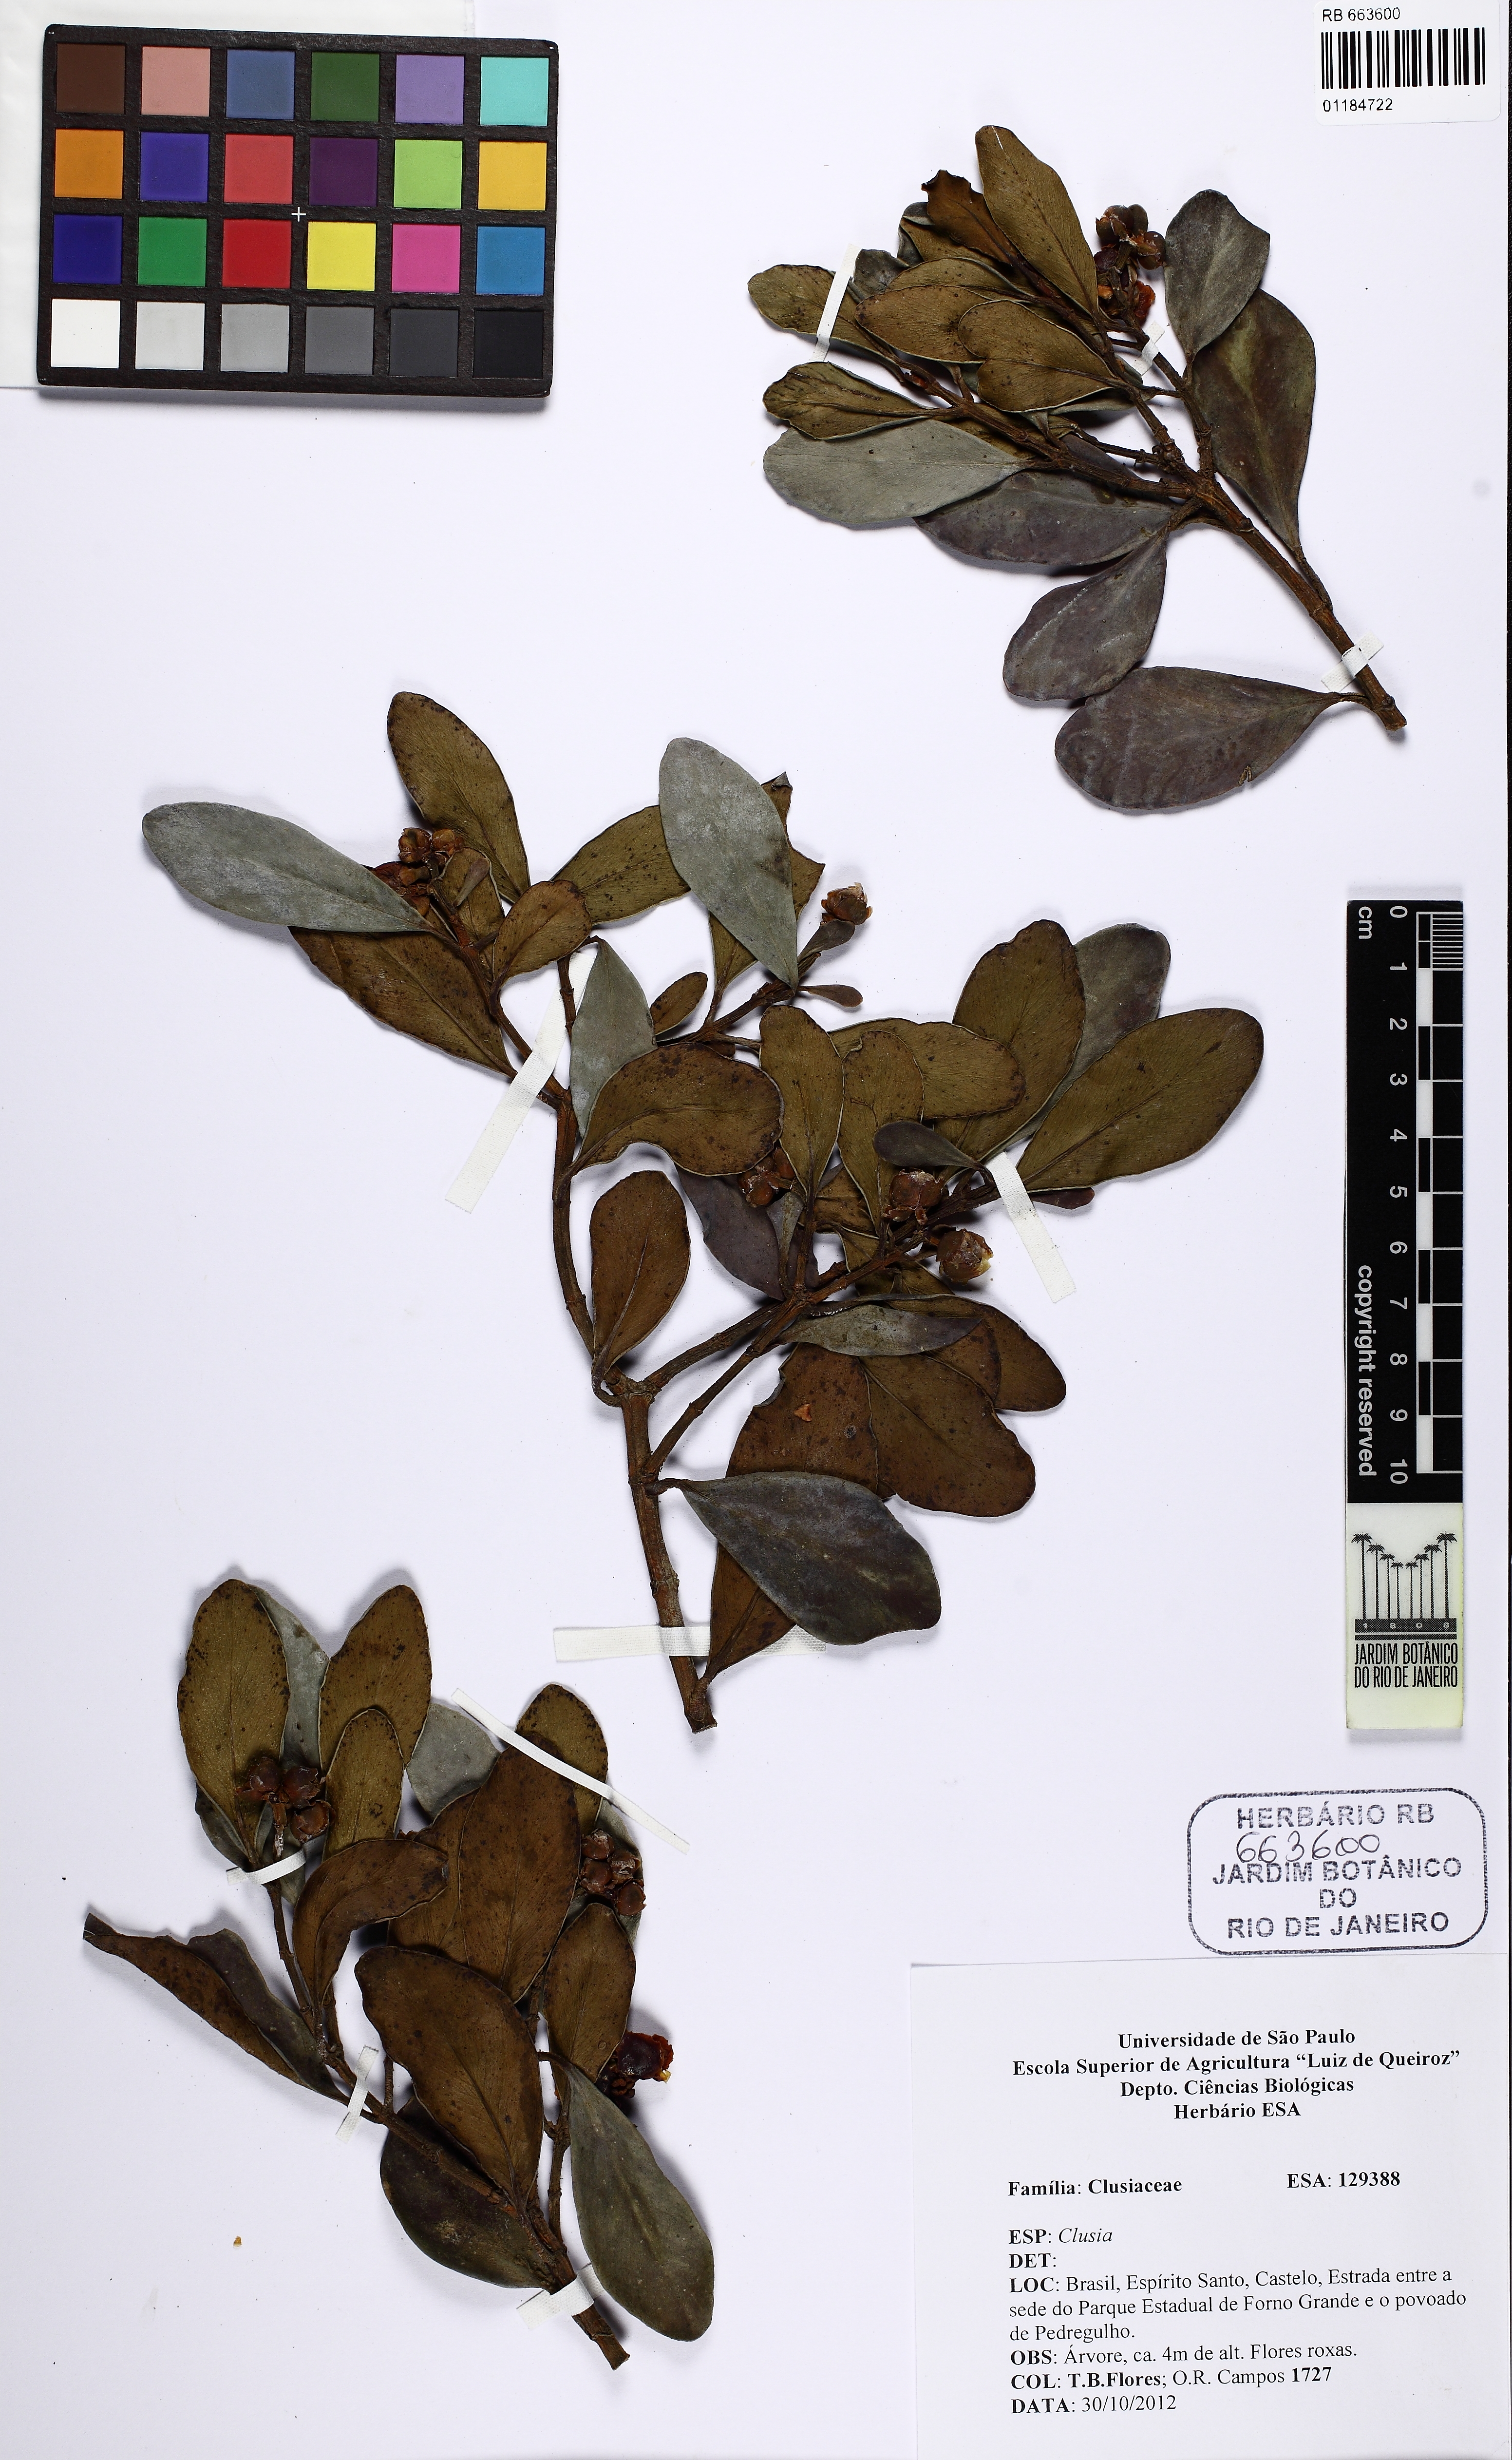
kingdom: Plantae
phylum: Tracheophyta
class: Magnoliopsida
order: Malpighiales
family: Clusiaceae
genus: Clusia
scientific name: Clusia organensis
